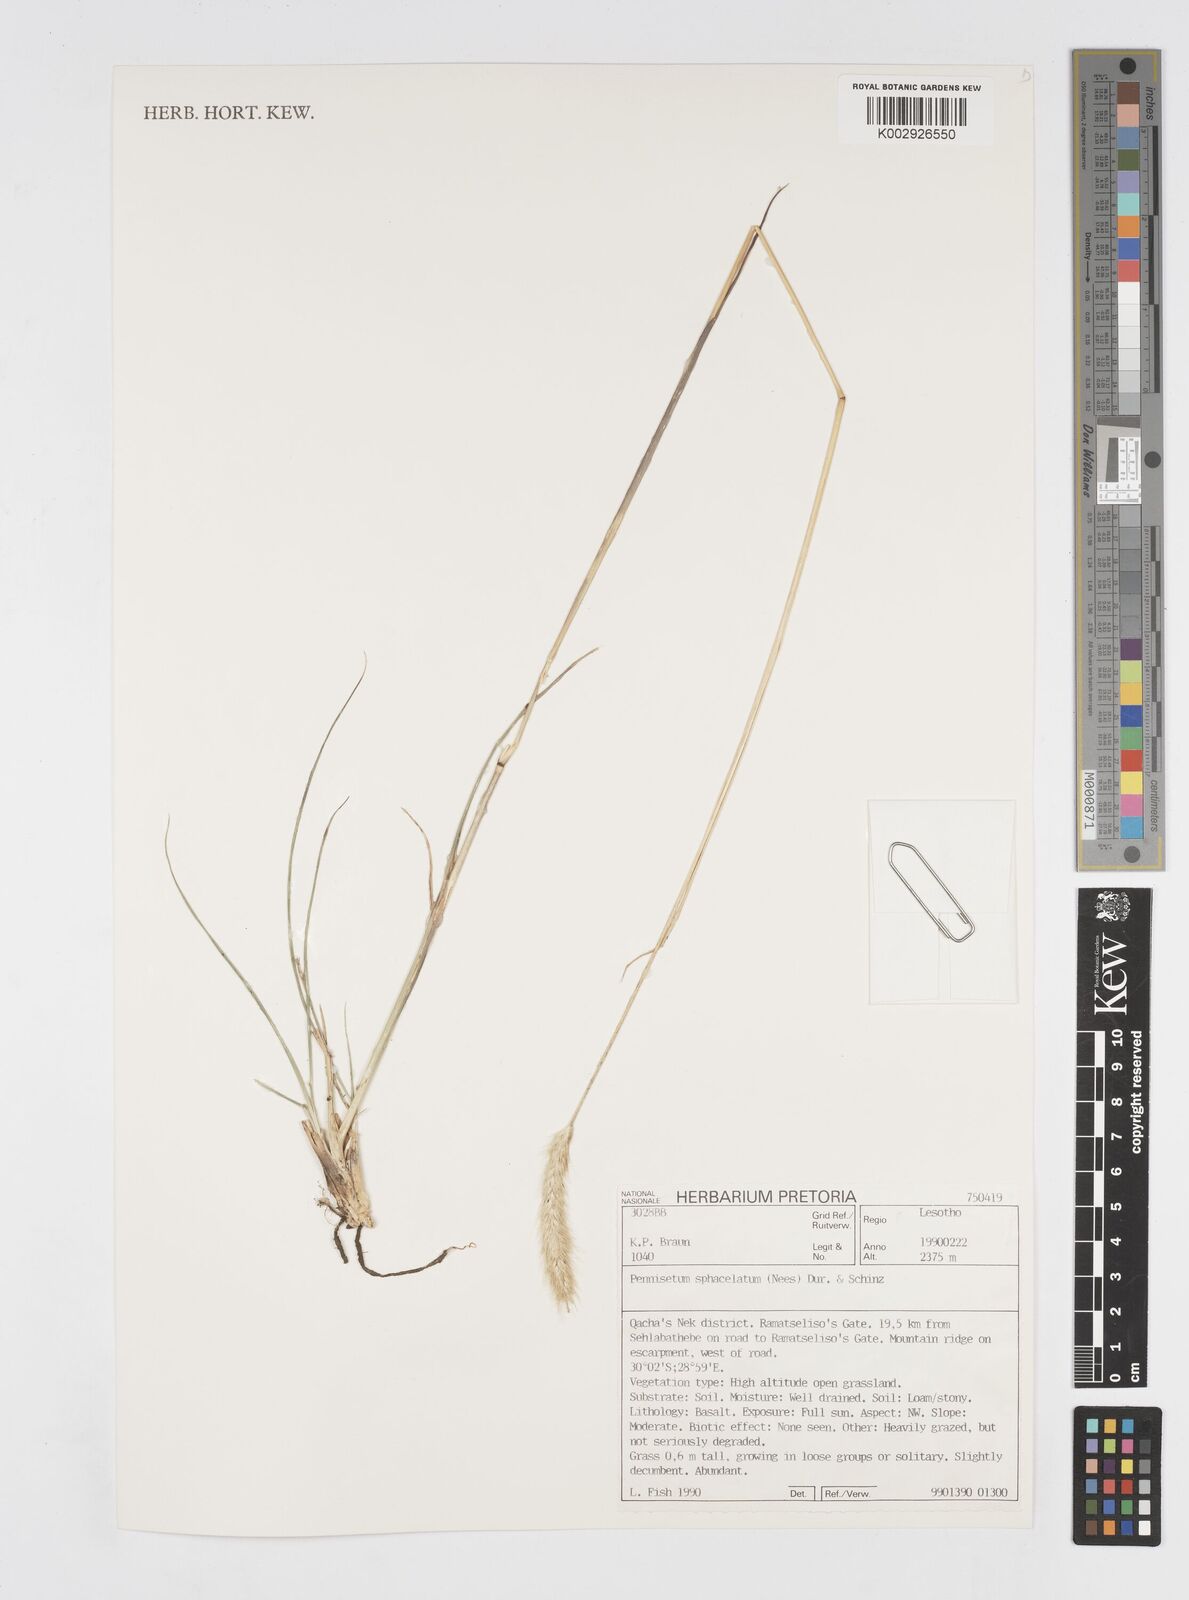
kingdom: Plantae
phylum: Tracheophyta
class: Liliopsida
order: Poales
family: Poaceae
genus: Cenchrus
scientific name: Cenchrus sphacelatus
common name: Bulgras
